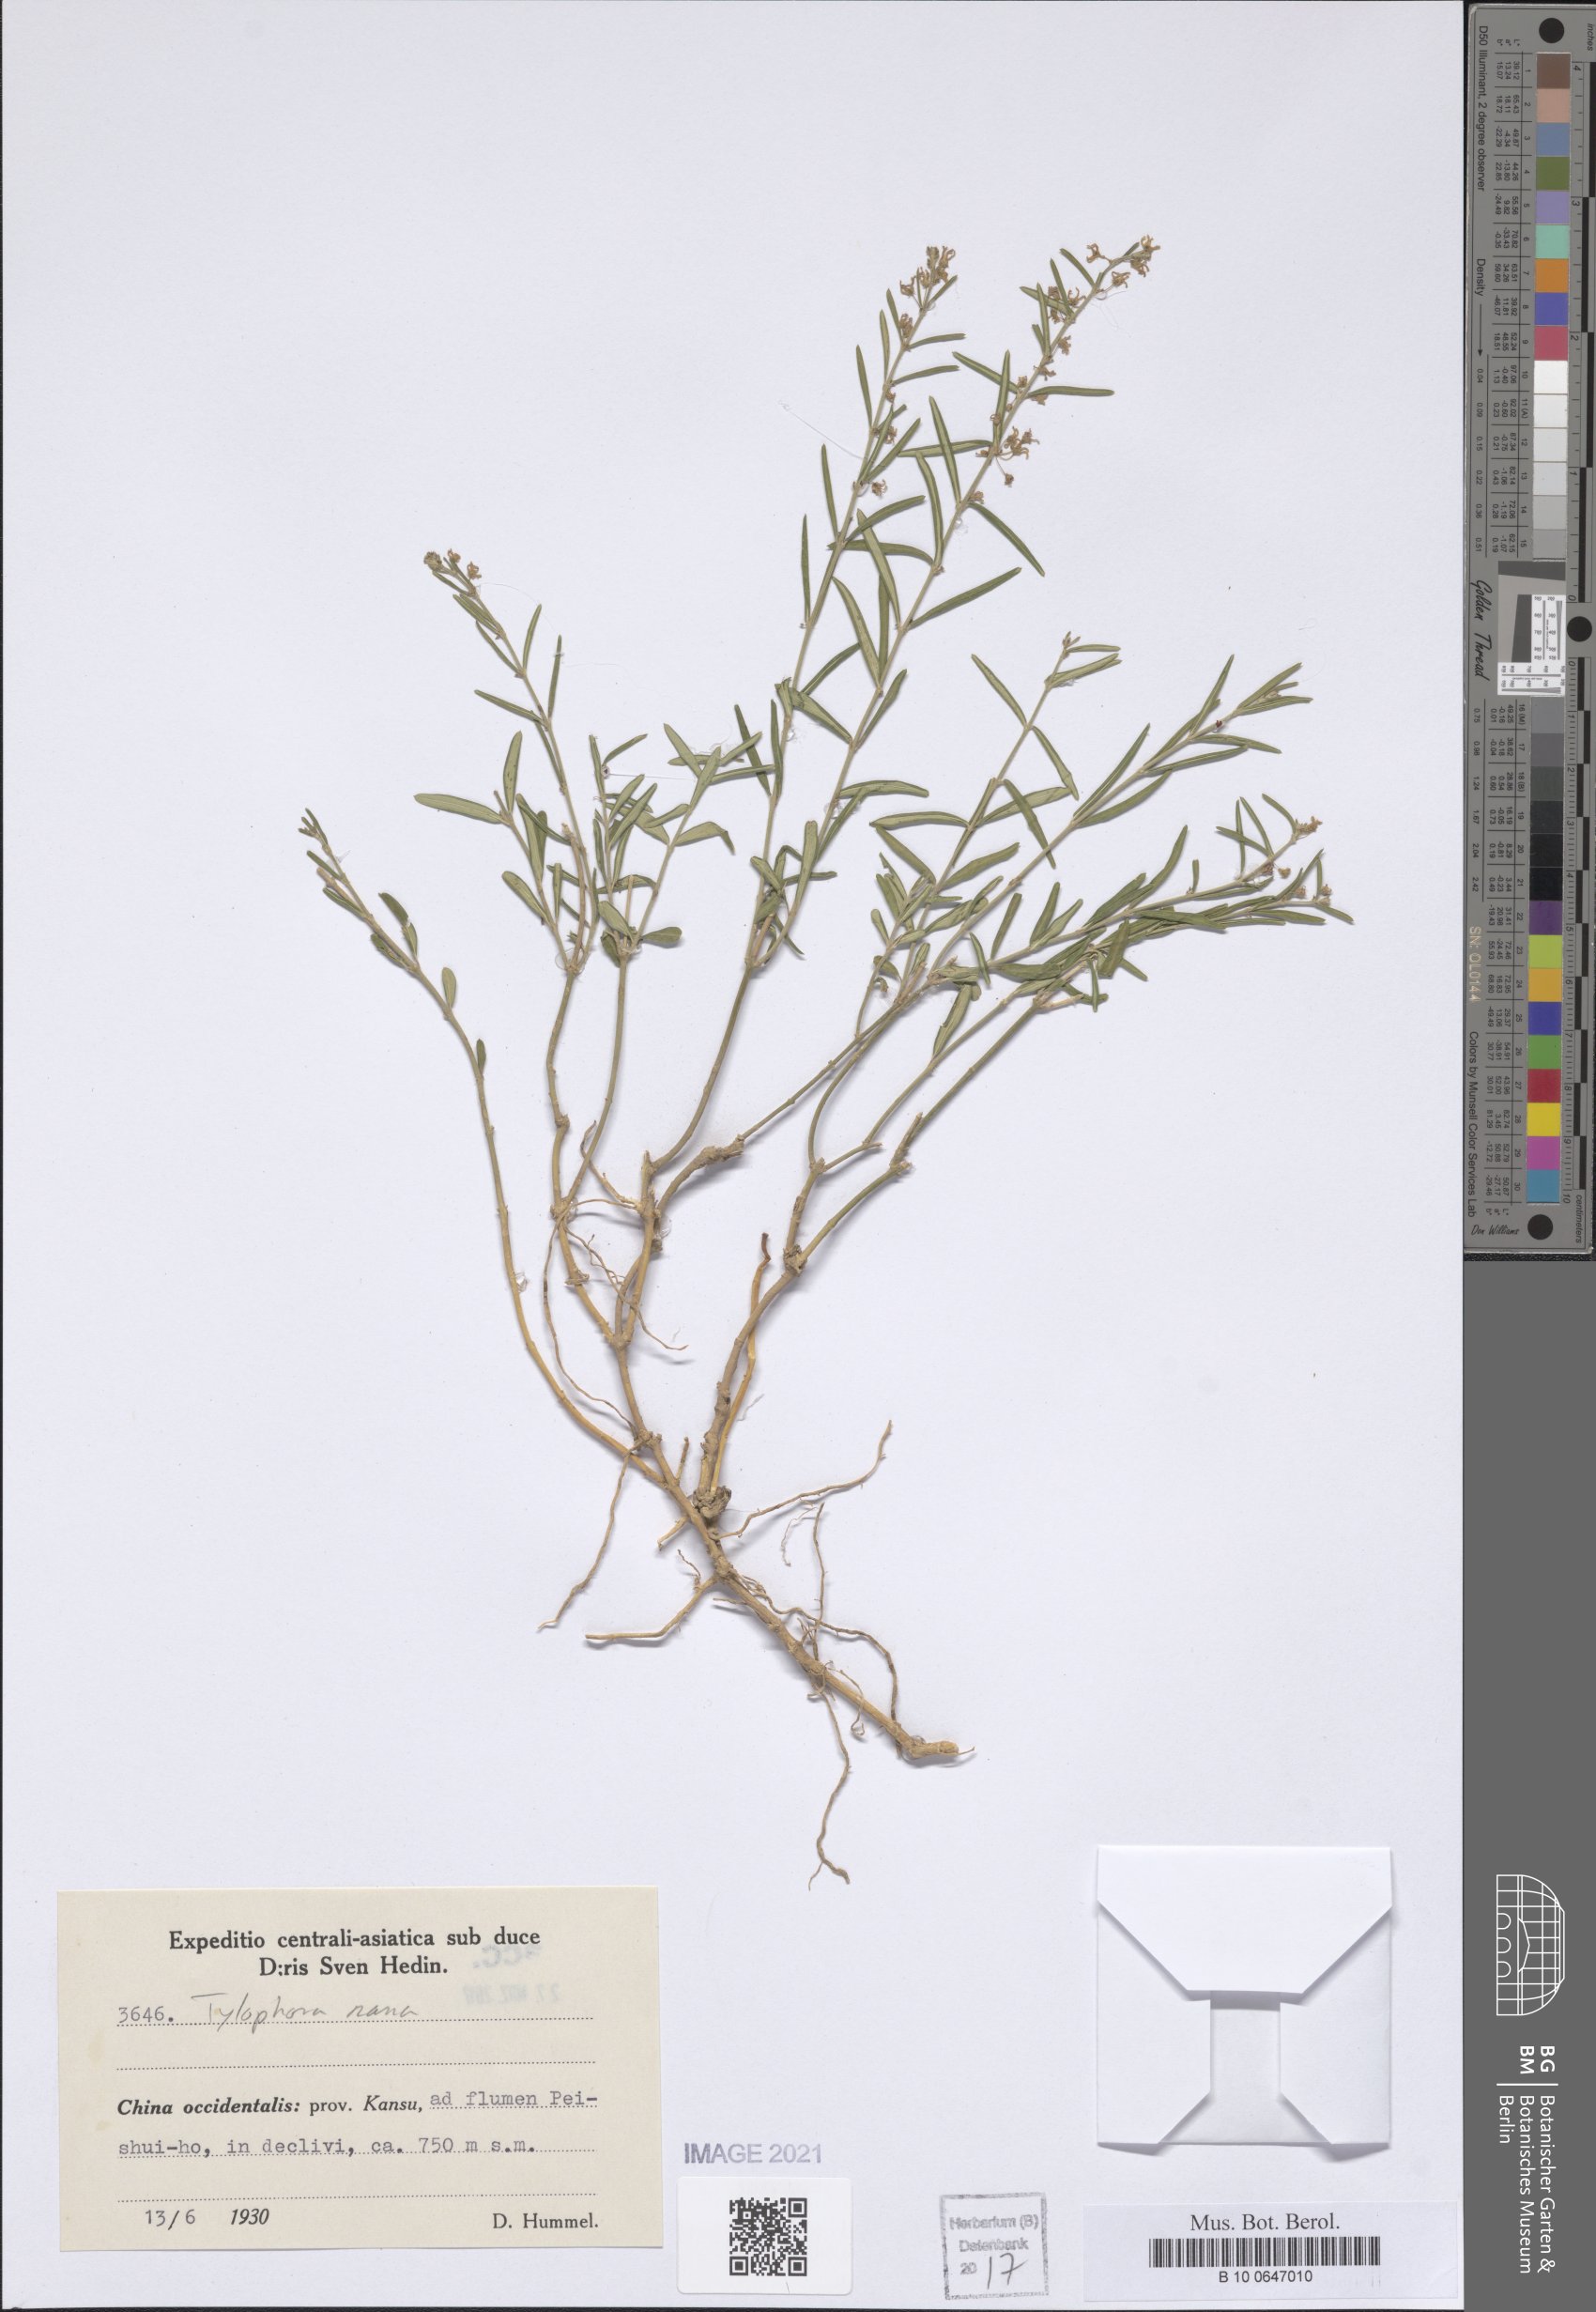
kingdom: Plantae
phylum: Tracheophyta
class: Magnoliopsida
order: Gentianales
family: Apocynaceae
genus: Vincetoxicum
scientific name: Vincetoxicum schneideri
